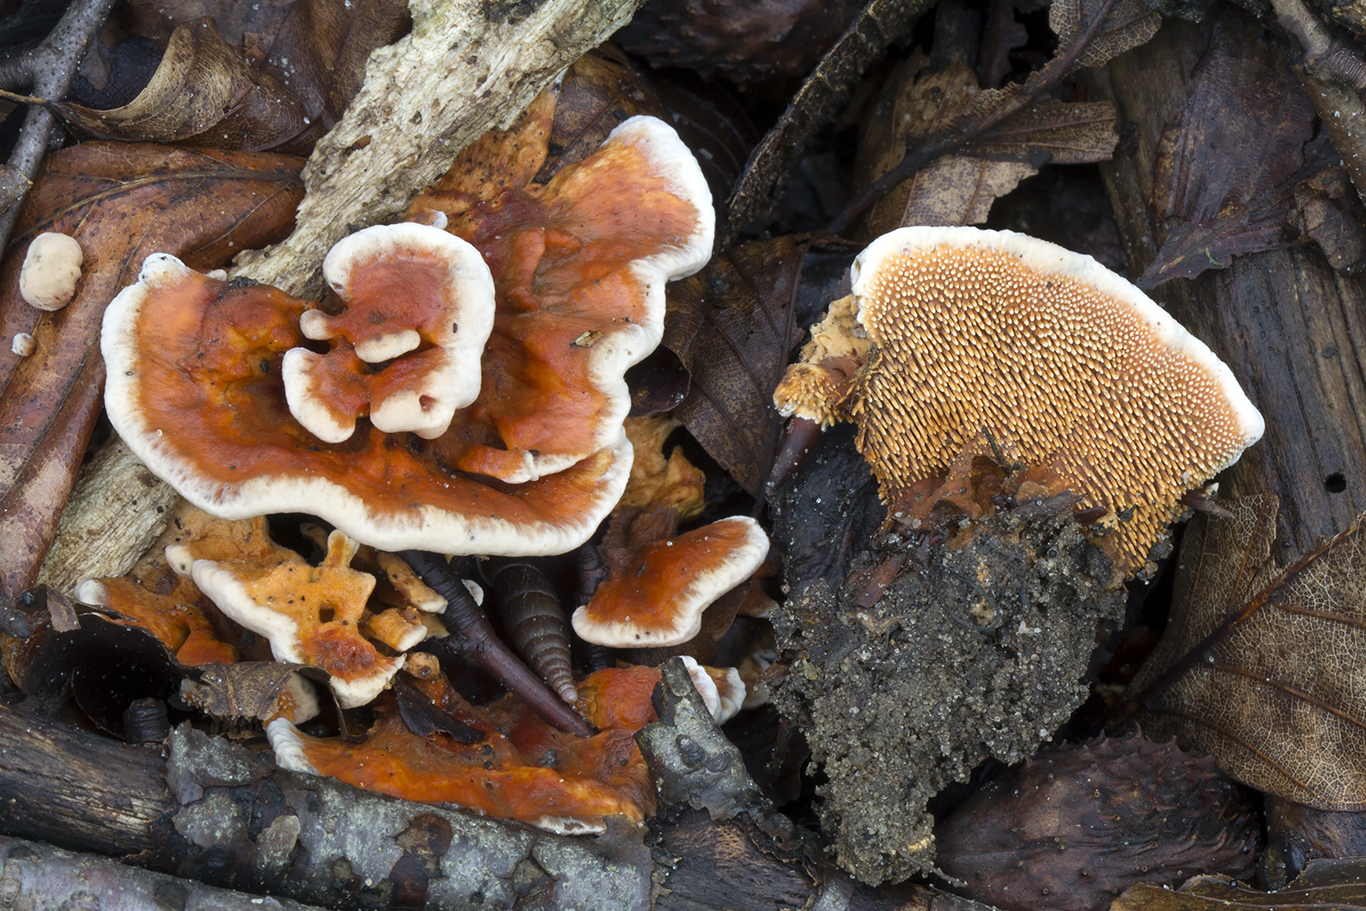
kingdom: Fungi
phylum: Basidiomycota
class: Agaricomycetes
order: Thelephorales
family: Bankeraceae
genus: Hydnellum
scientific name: Hydnellum auratile
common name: teglrød korkpigsvamp
